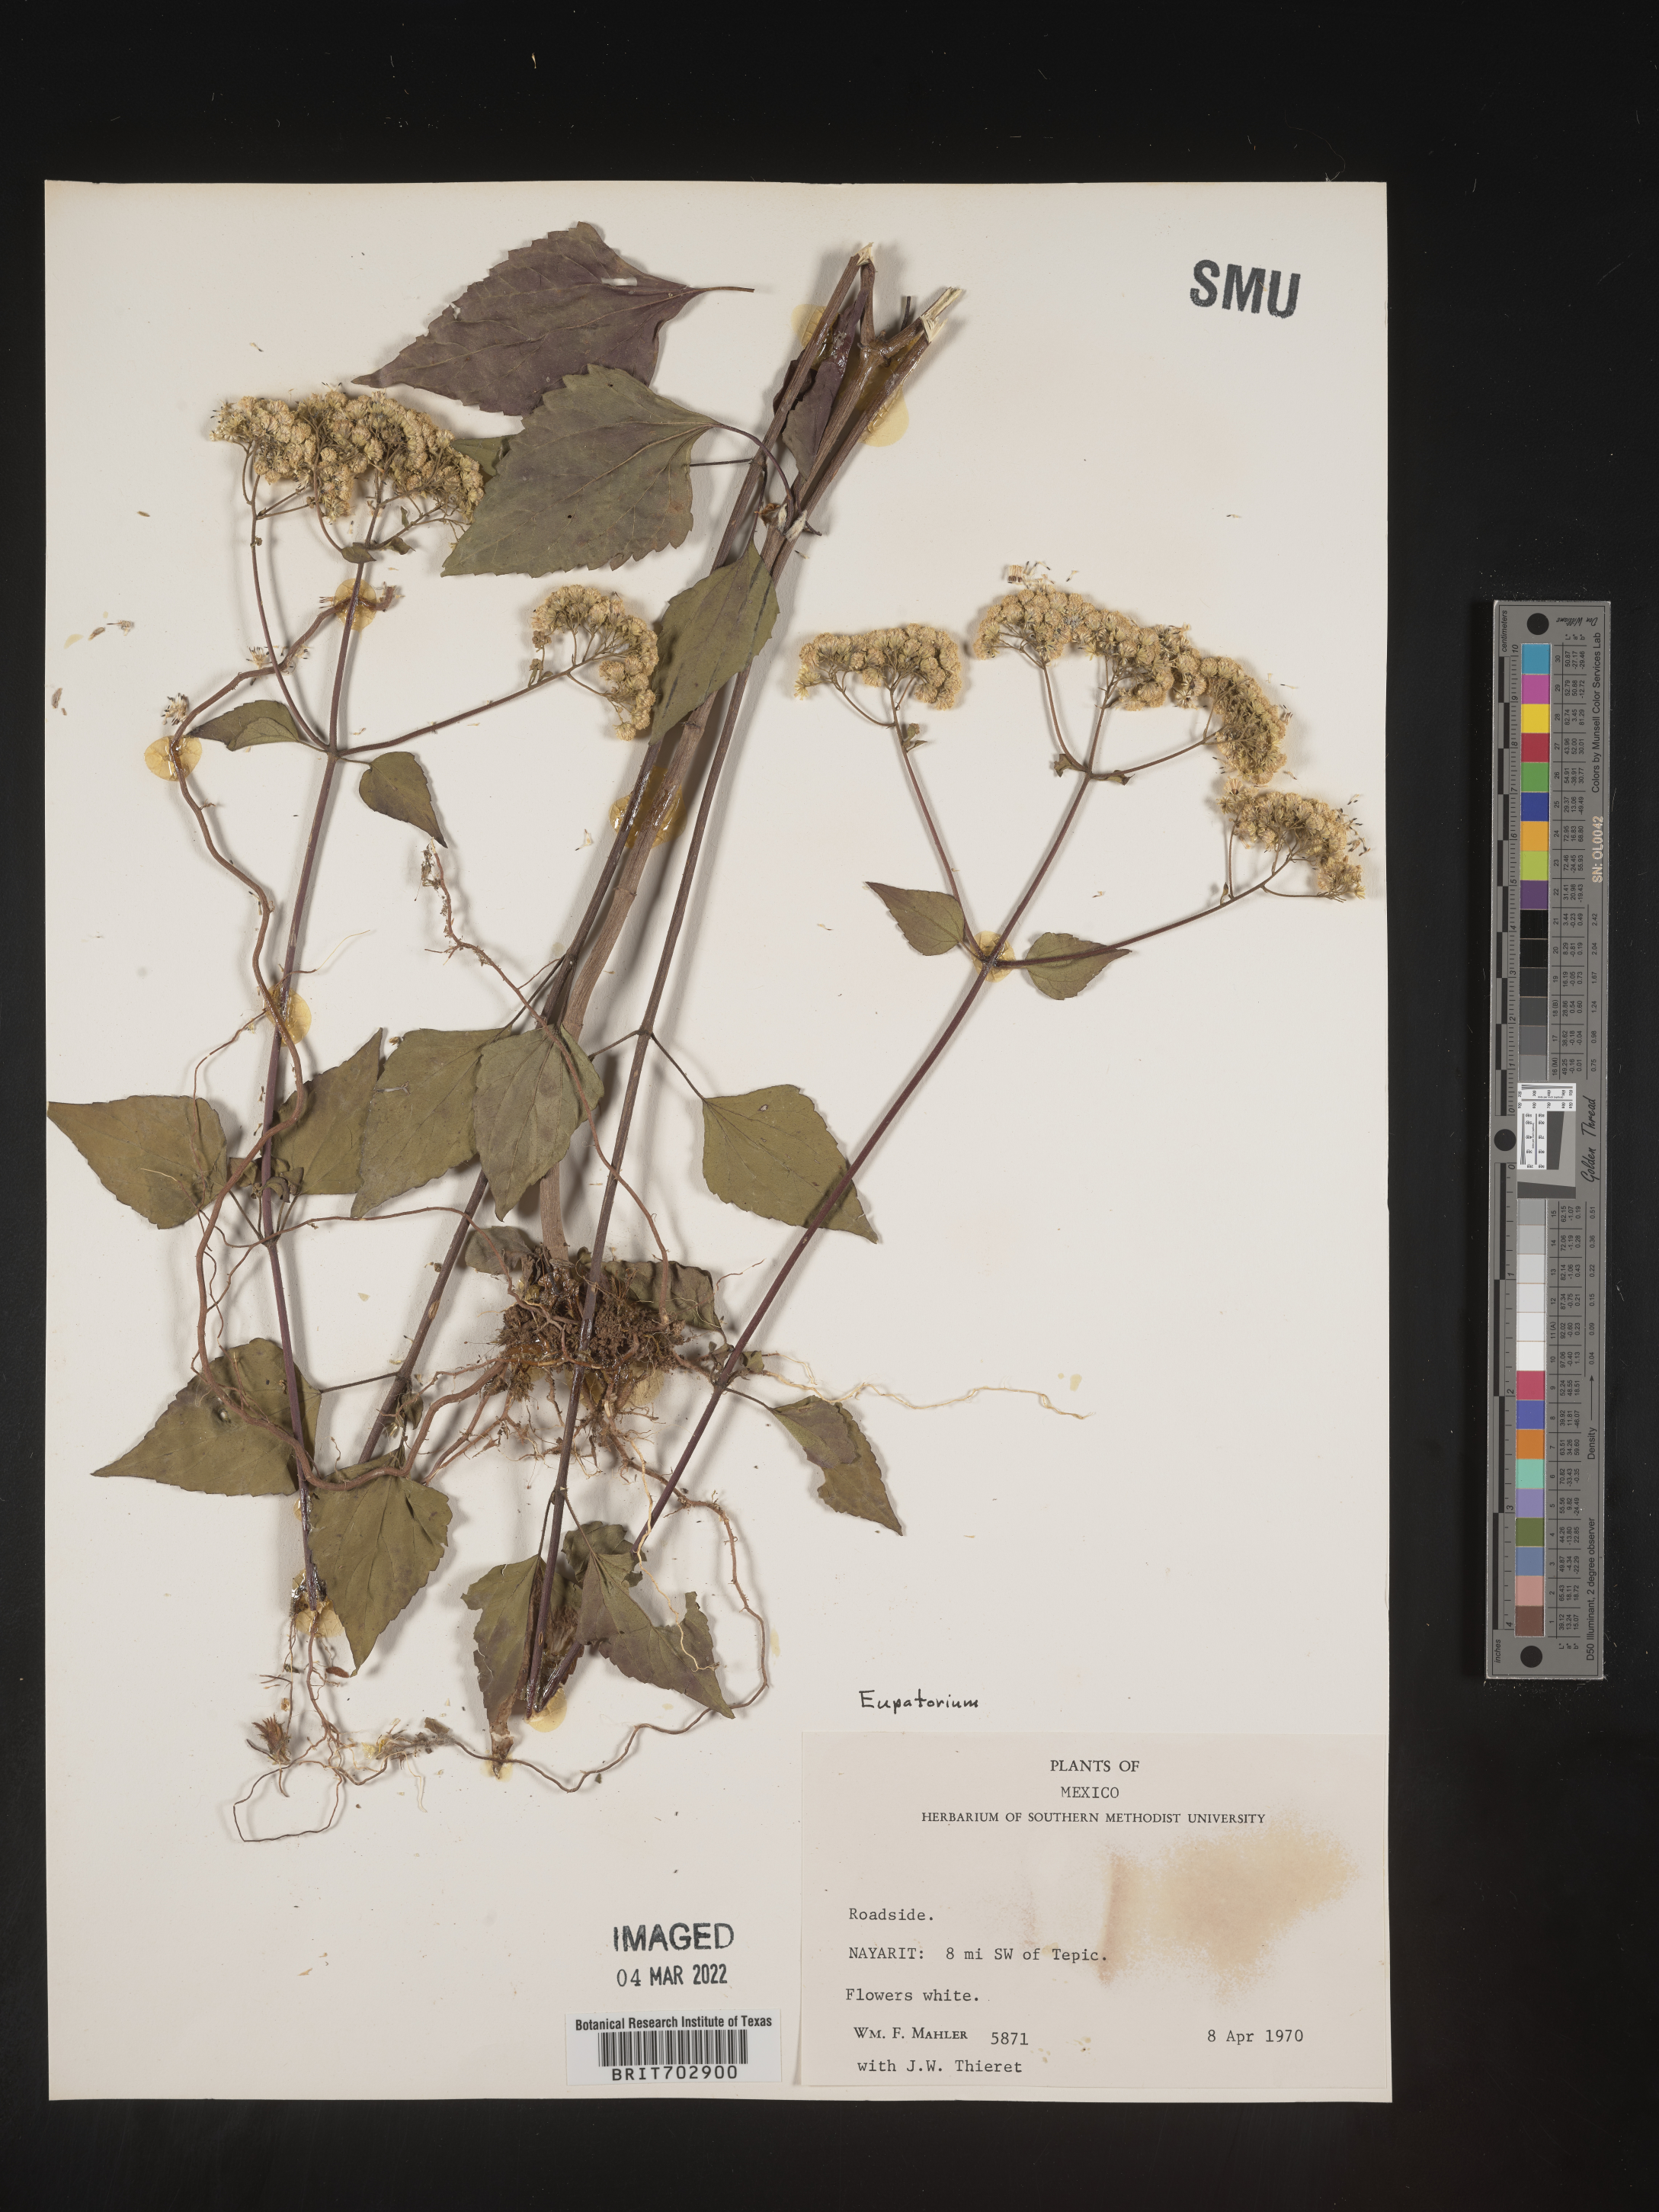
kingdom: Plantae
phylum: Tracheophyta
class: Magnoliopsida
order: Asterales
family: Asteraceae
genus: Eupatorium
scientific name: Eupatorium
